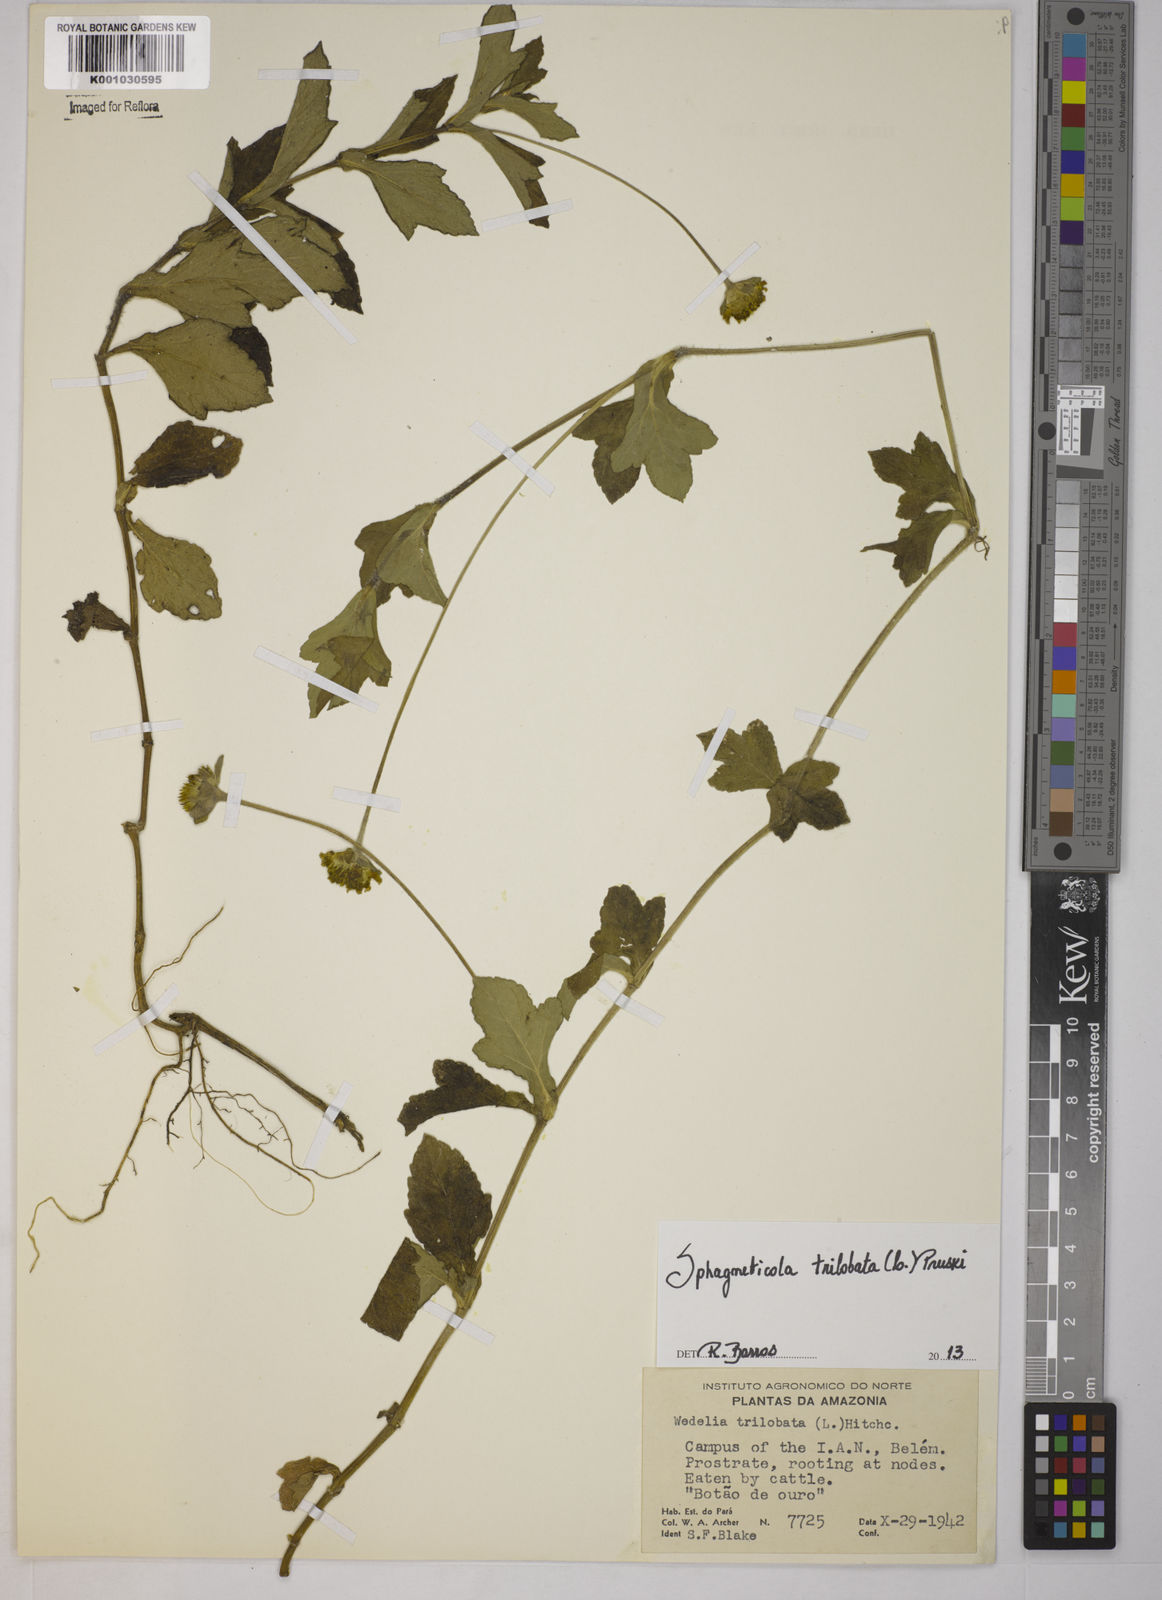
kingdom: Plantae
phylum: Tracheophyta
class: Magnoliopsida
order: Asterales
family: Asteraceae
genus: Sphagneticola
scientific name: Sphagneticola trilobata
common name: Bay biscayne creeping-oxeye
